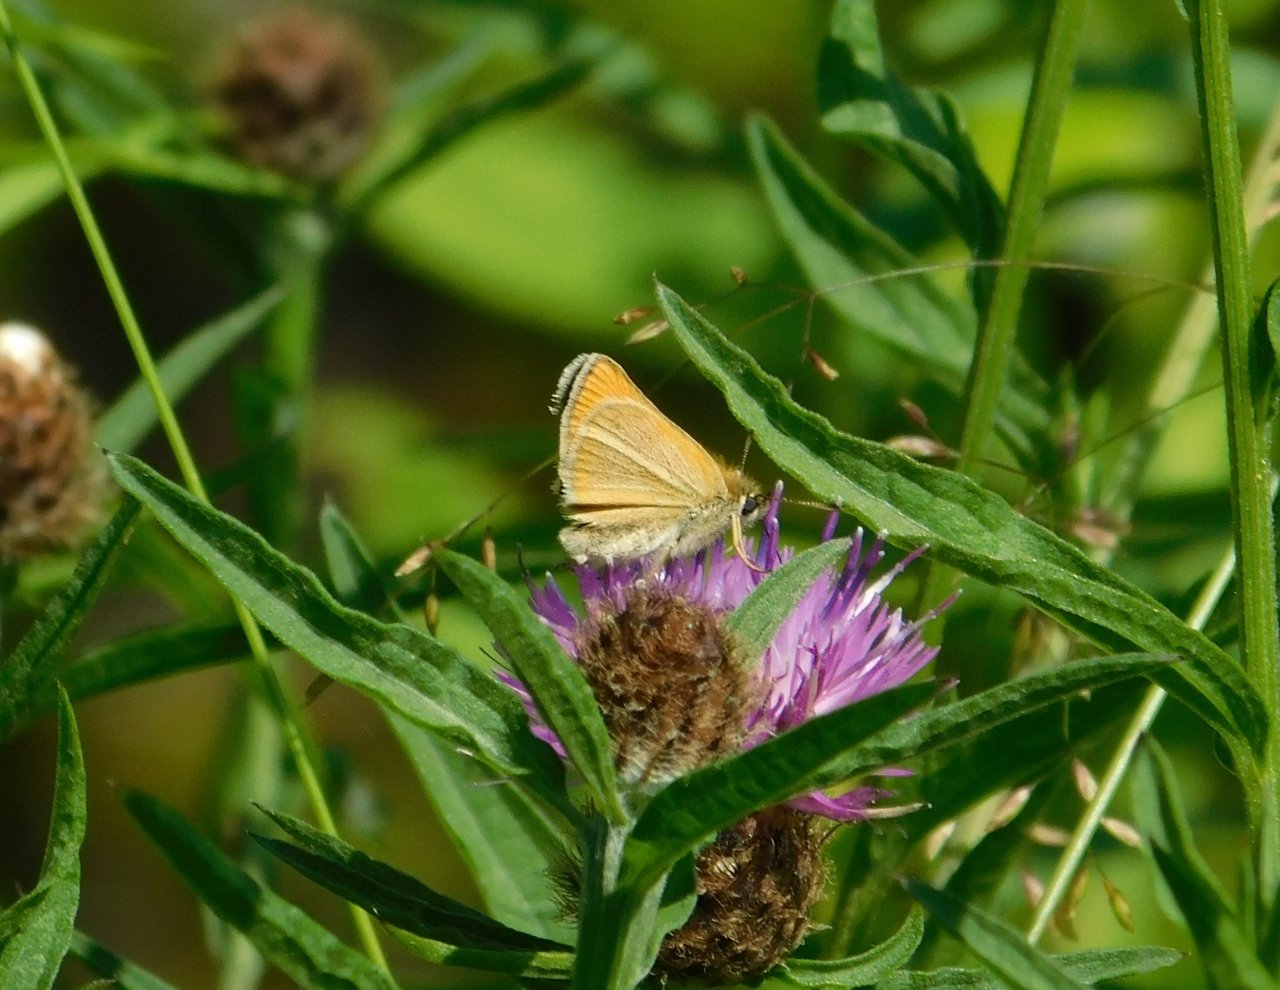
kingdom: Animalia
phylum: Arthropoda
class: Insecta
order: Lepidoptera
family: Hesperiidae
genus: Thymelicus
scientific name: Thymelicus lineola
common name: European Skipper
